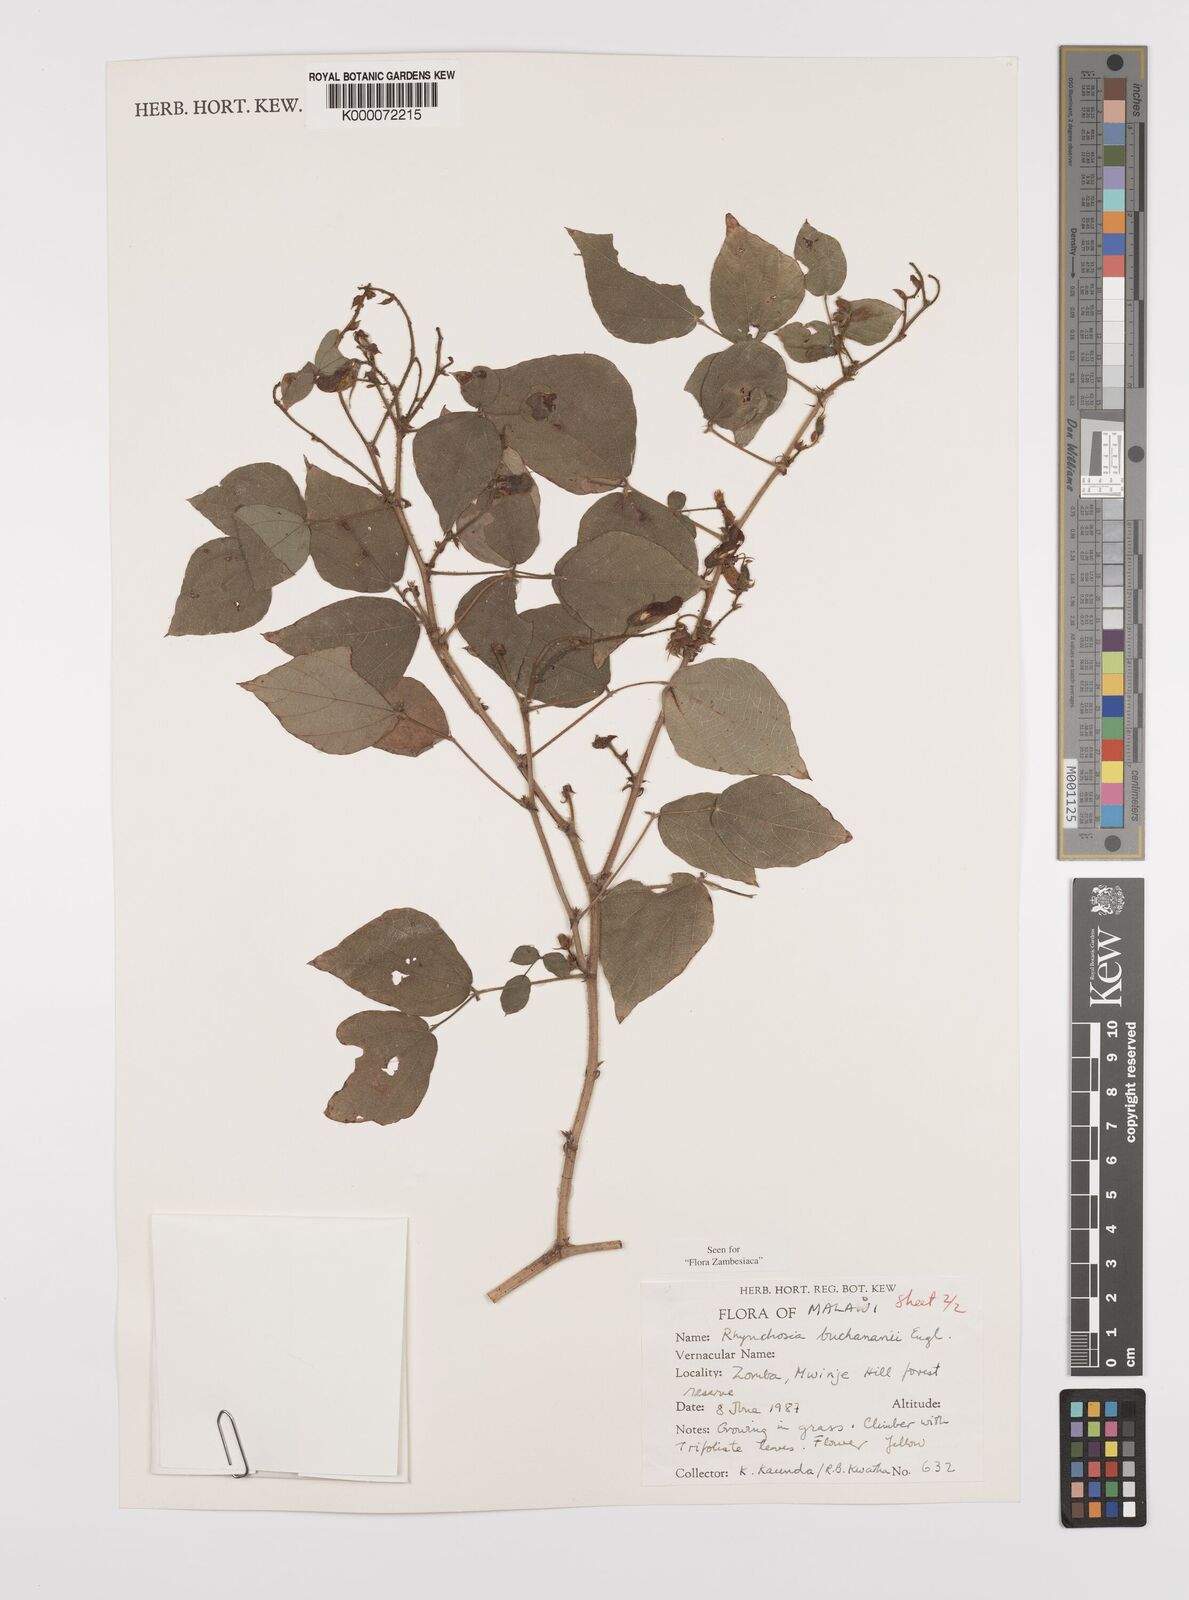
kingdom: Plantae
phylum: Tracheophyta
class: Magnoliopsida
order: Fabales
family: Fabaceae
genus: Rhynchosia
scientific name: Rhynchosia buchananii
